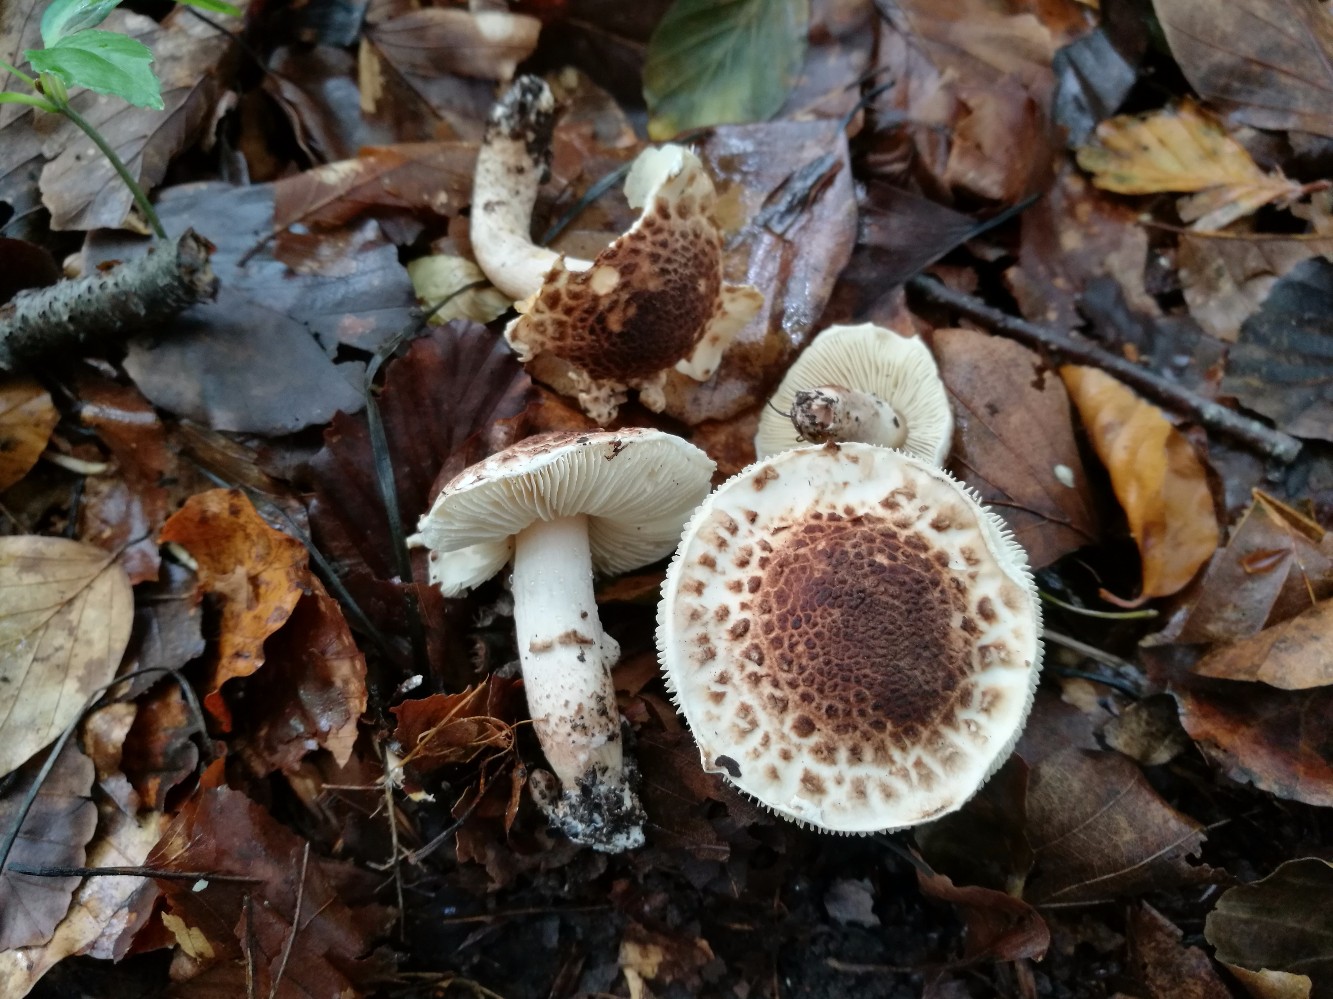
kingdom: Fungi
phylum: Basidiomycota
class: Agaricomycetes
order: Agaricales
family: Agaricaceae
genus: Lepiota
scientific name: Lepiota cingulum
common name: guirlande-parasolhat
